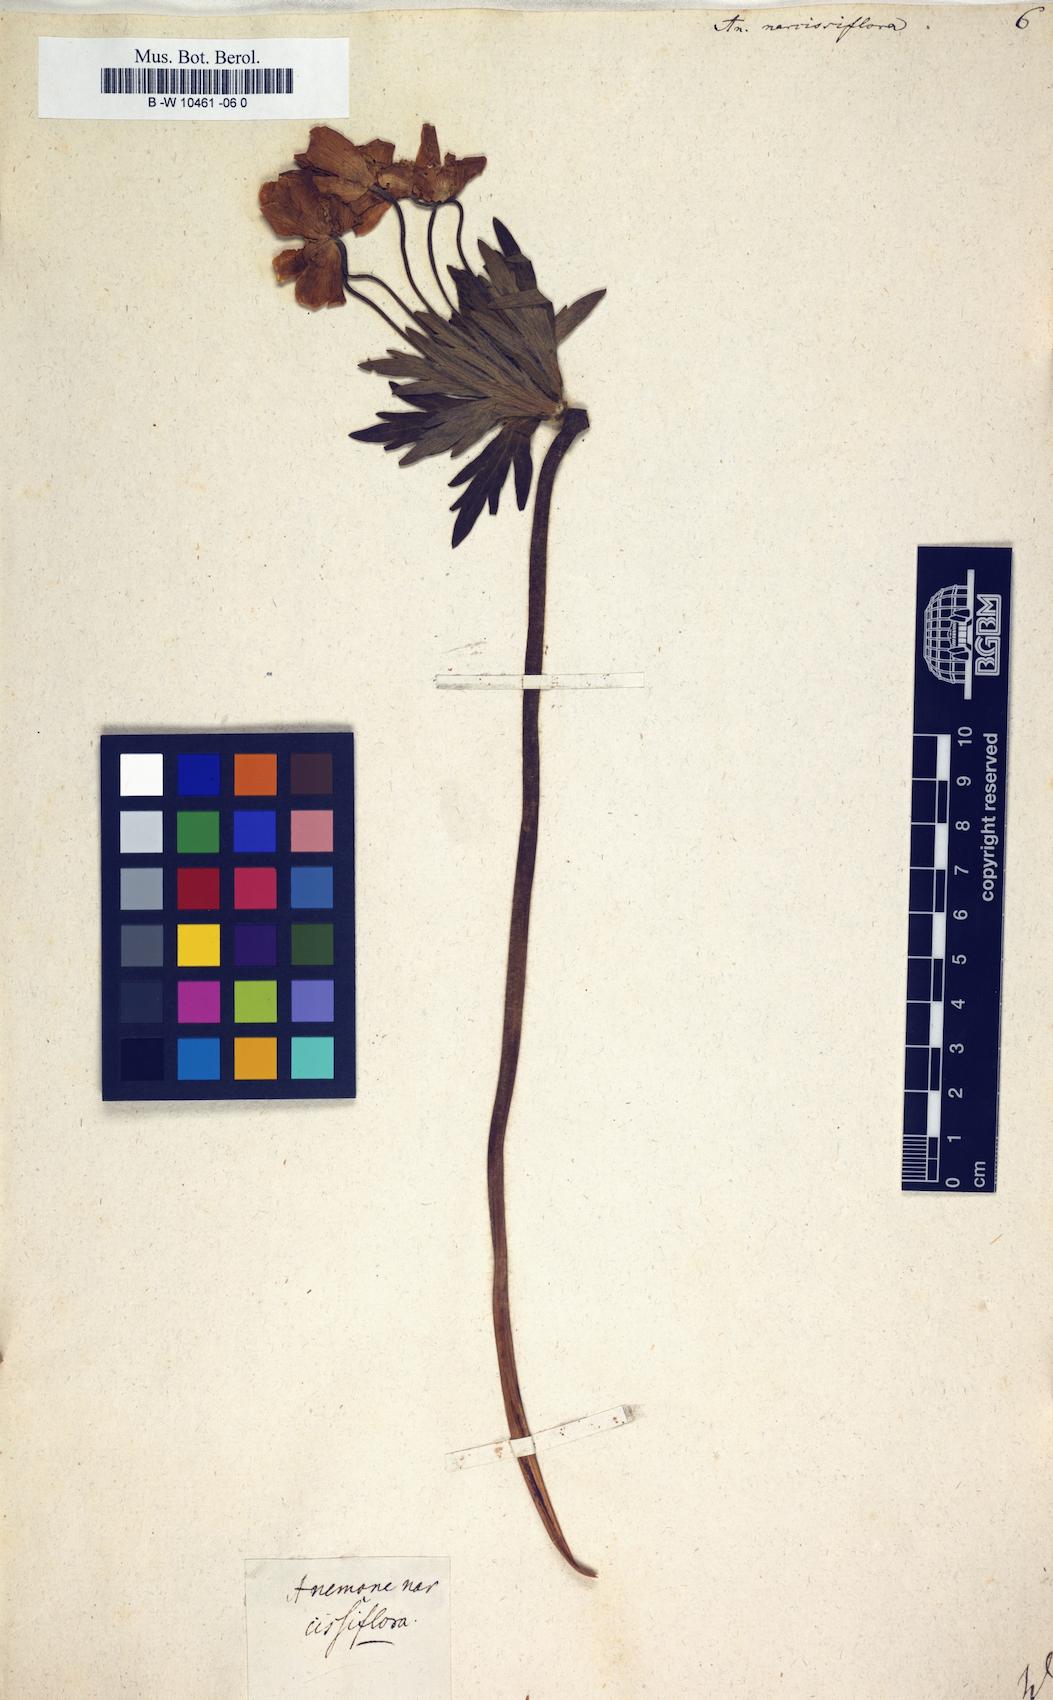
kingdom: Plantae
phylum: Tracheophyta
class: Magnoliopsida
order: Ranunculales
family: Ranunculaceae
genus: Anemonastrum
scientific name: Anemonastrum narcissiflorum
